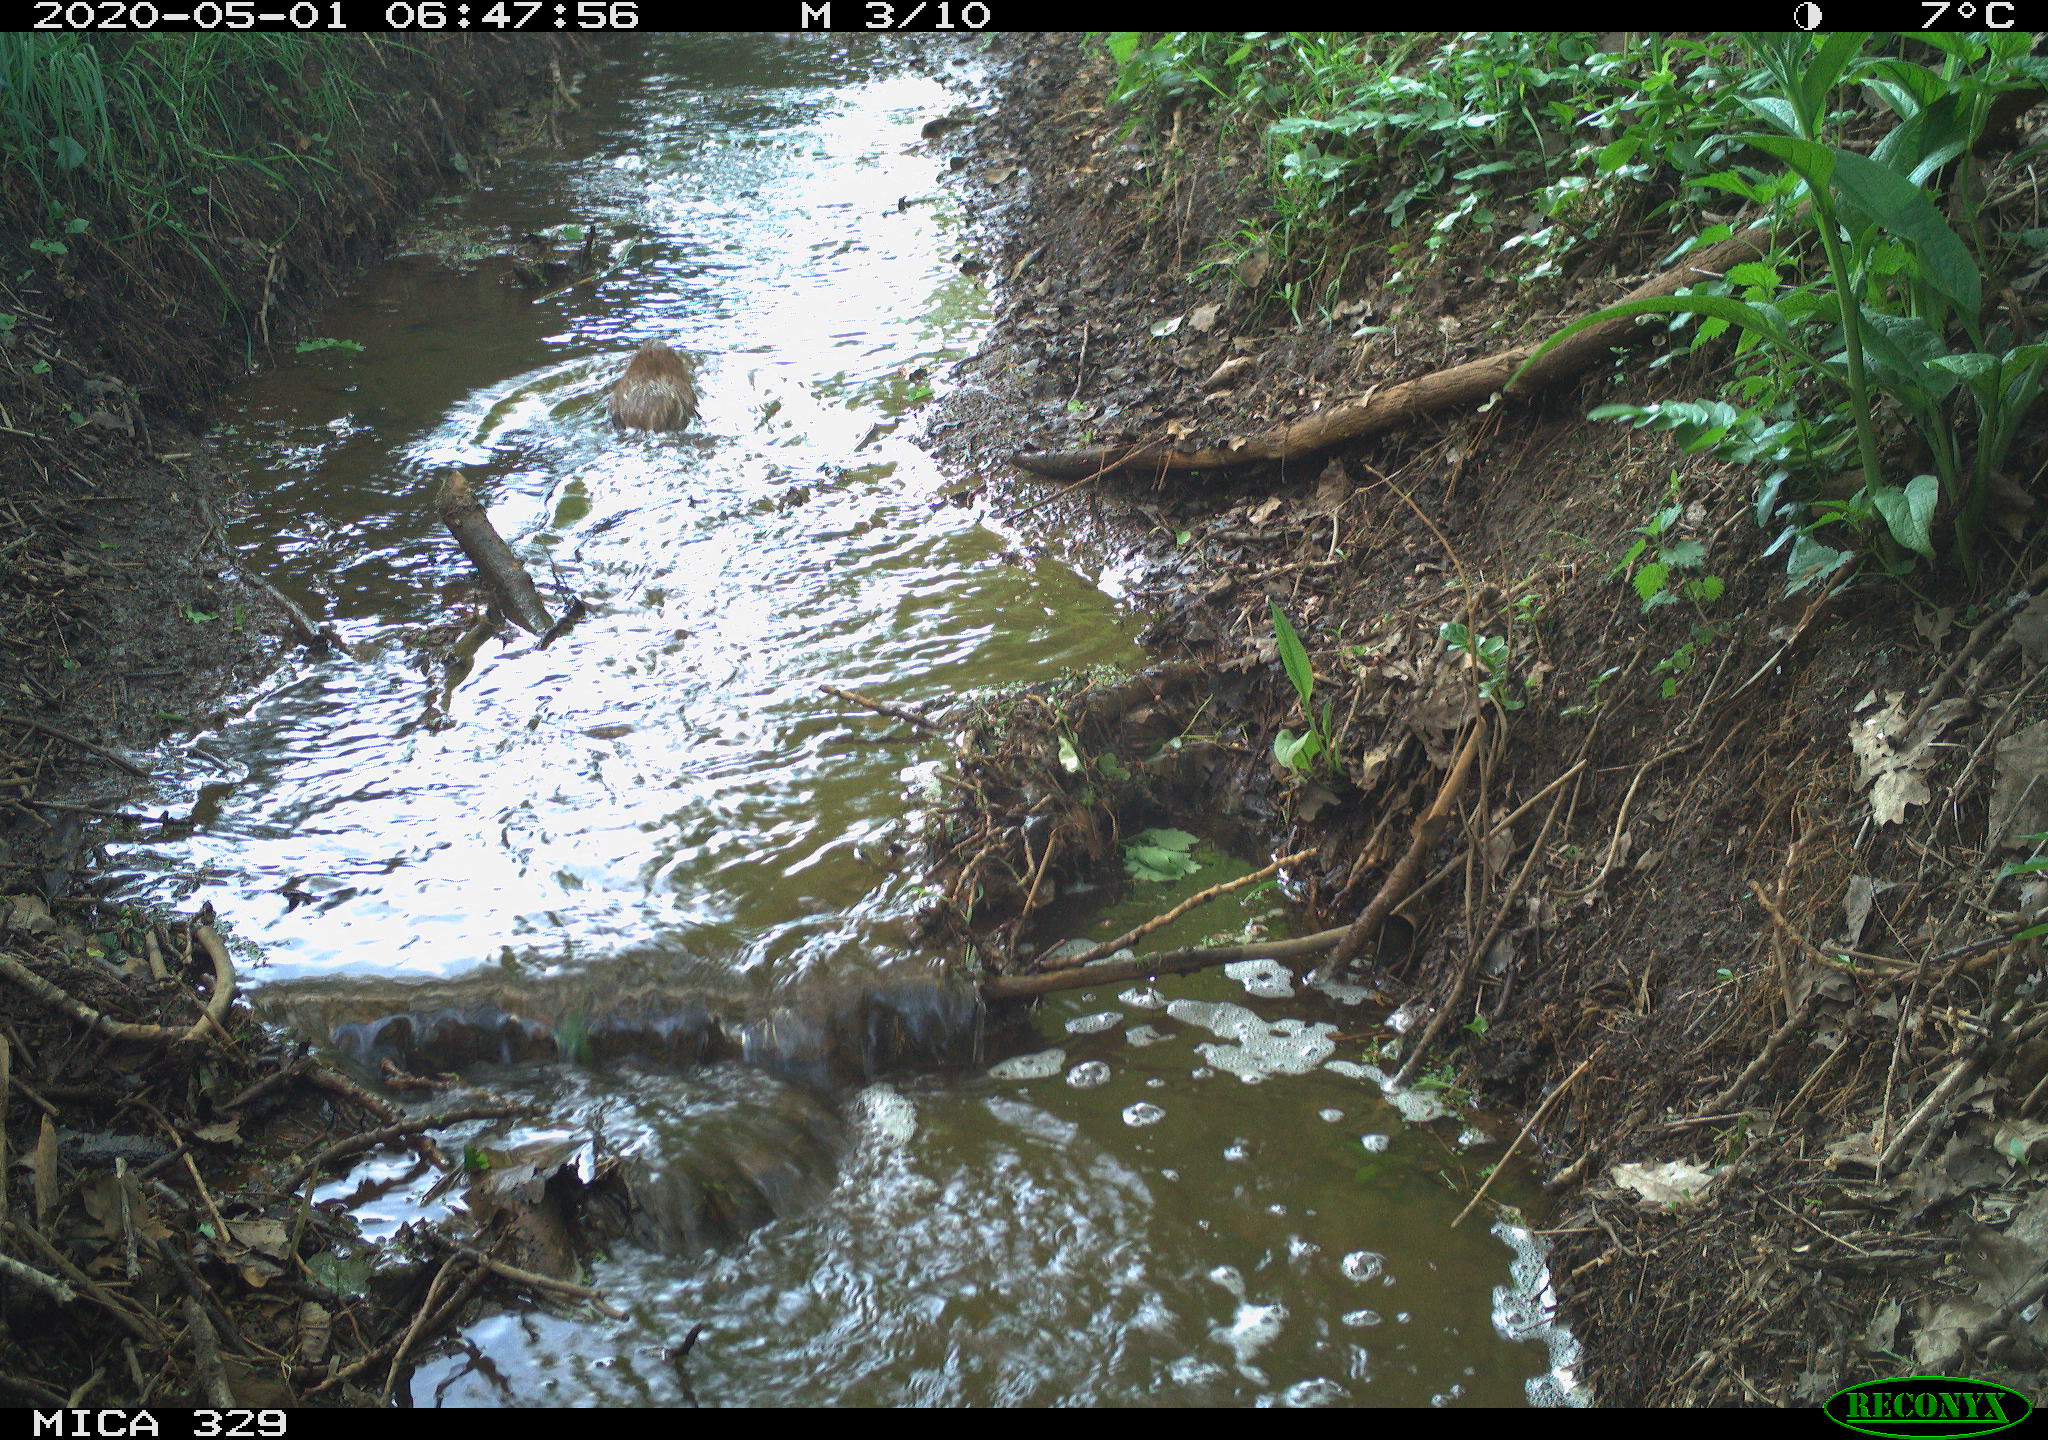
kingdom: Animalia
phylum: Chordata
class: Mammalia
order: Rodentia
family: Cricetidae
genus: Ondatra
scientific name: Ondatra zibethicus
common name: Muskrat
